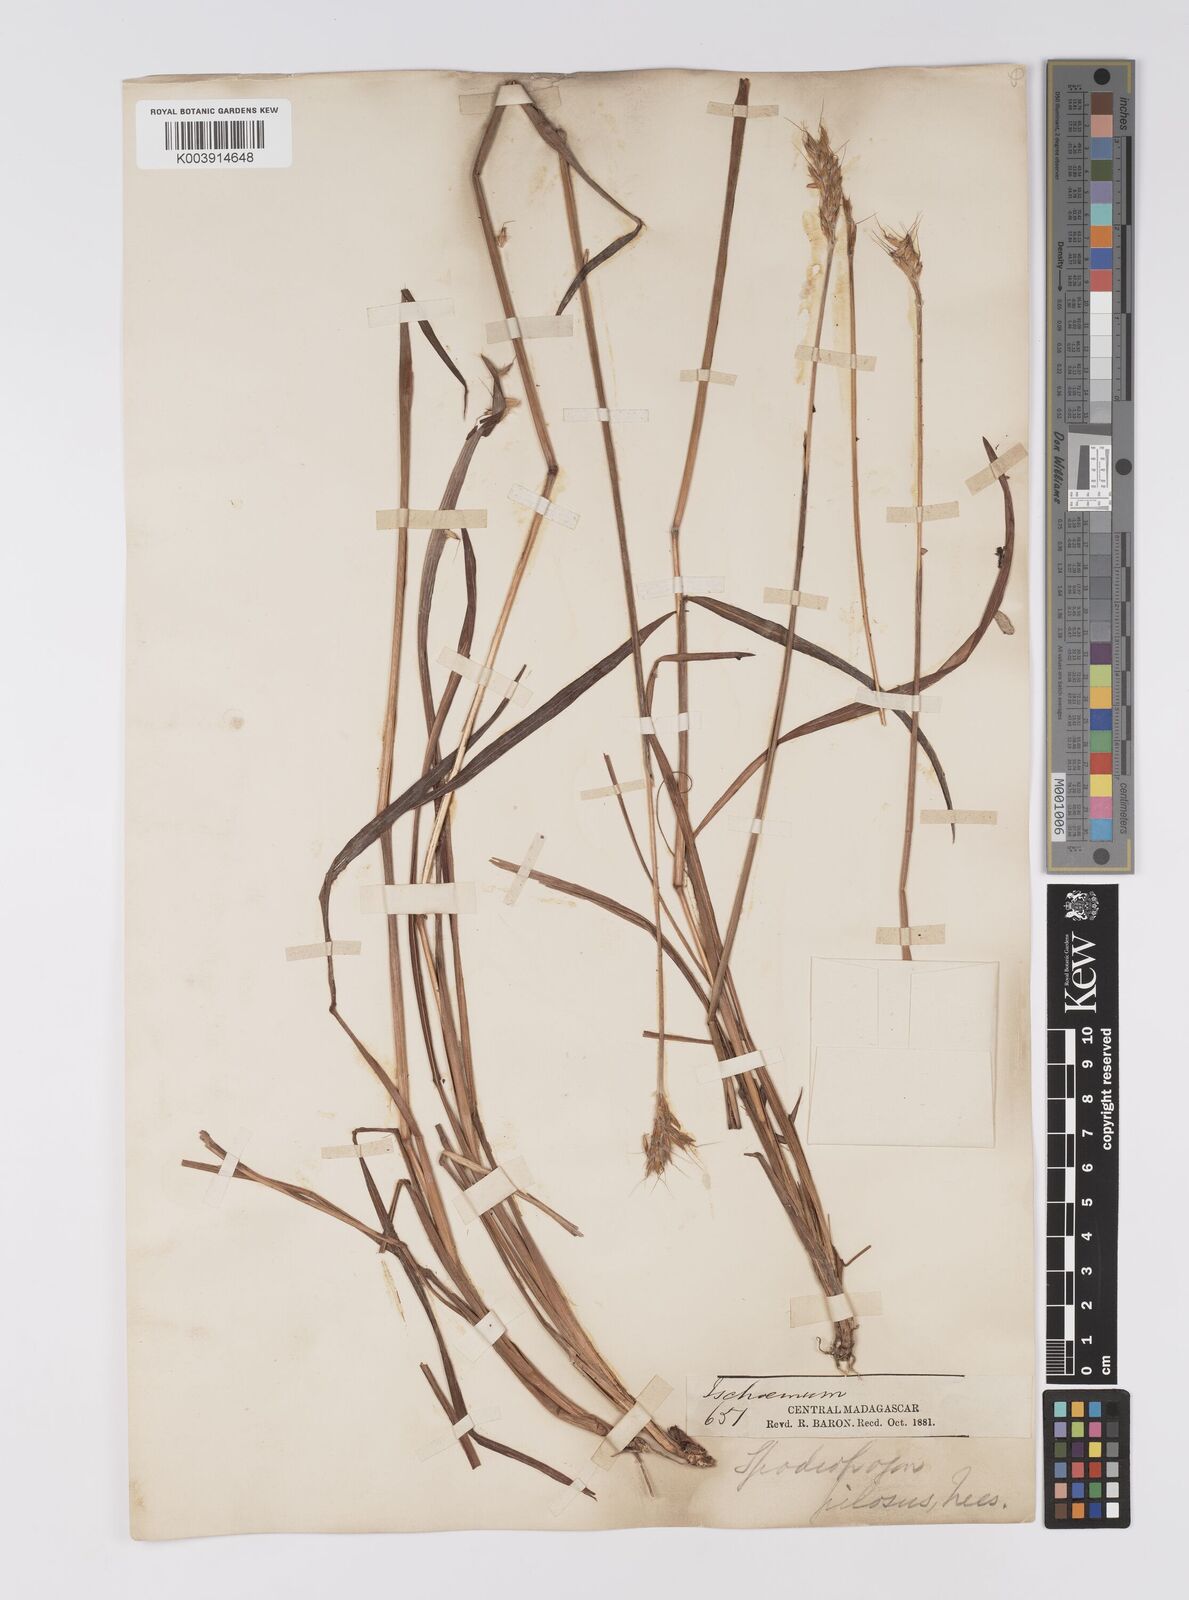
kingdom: Plantae
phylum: Tracheophyta
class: Liliopsida
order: Poales
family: Poaceae
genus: Eulalia
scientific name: Eulalia villosa
